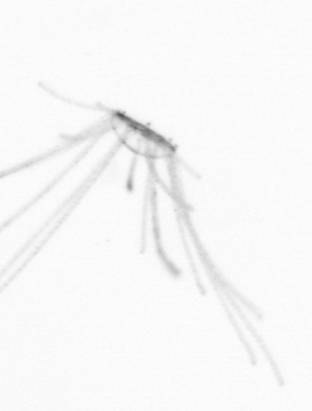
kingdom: Animalia
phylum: Cnidaria
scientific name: Cnidaria
